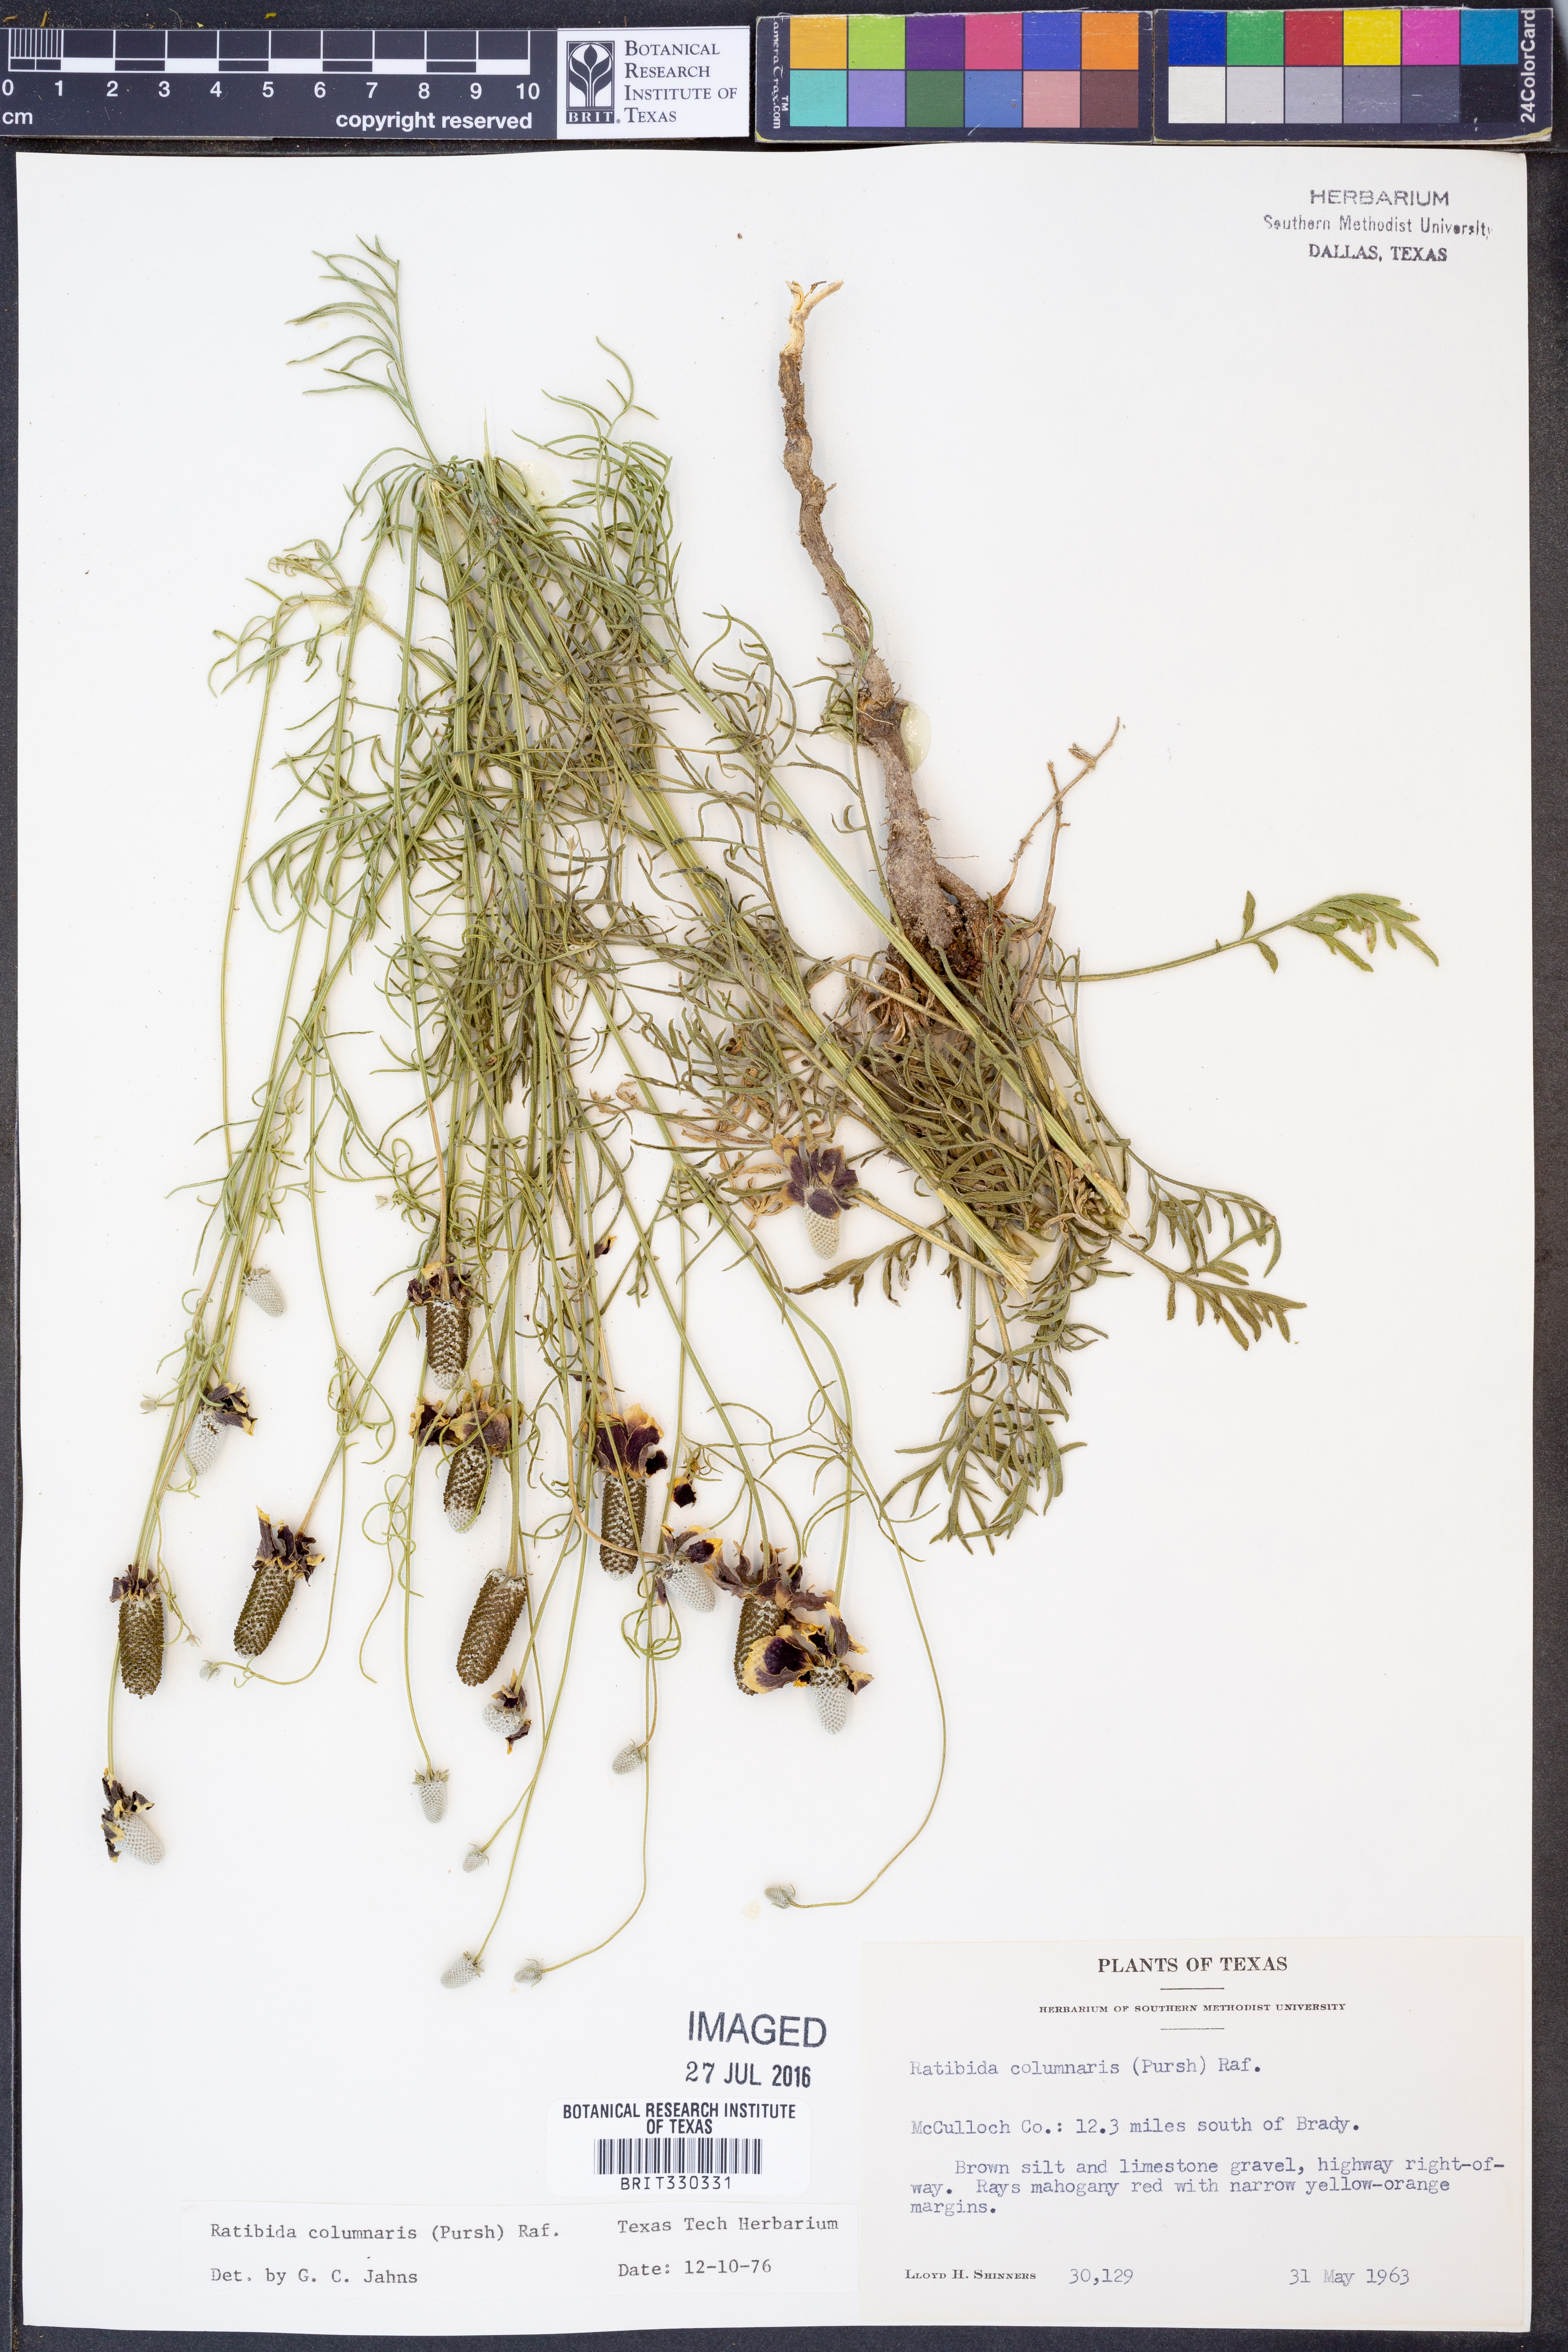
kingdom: Plantae
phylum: Tracheophyta
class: Magnoliopsida
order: Asterales
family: Asteraceae
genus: Ratibida
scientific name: Ratibida columnifera
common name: Prairie coneflower
